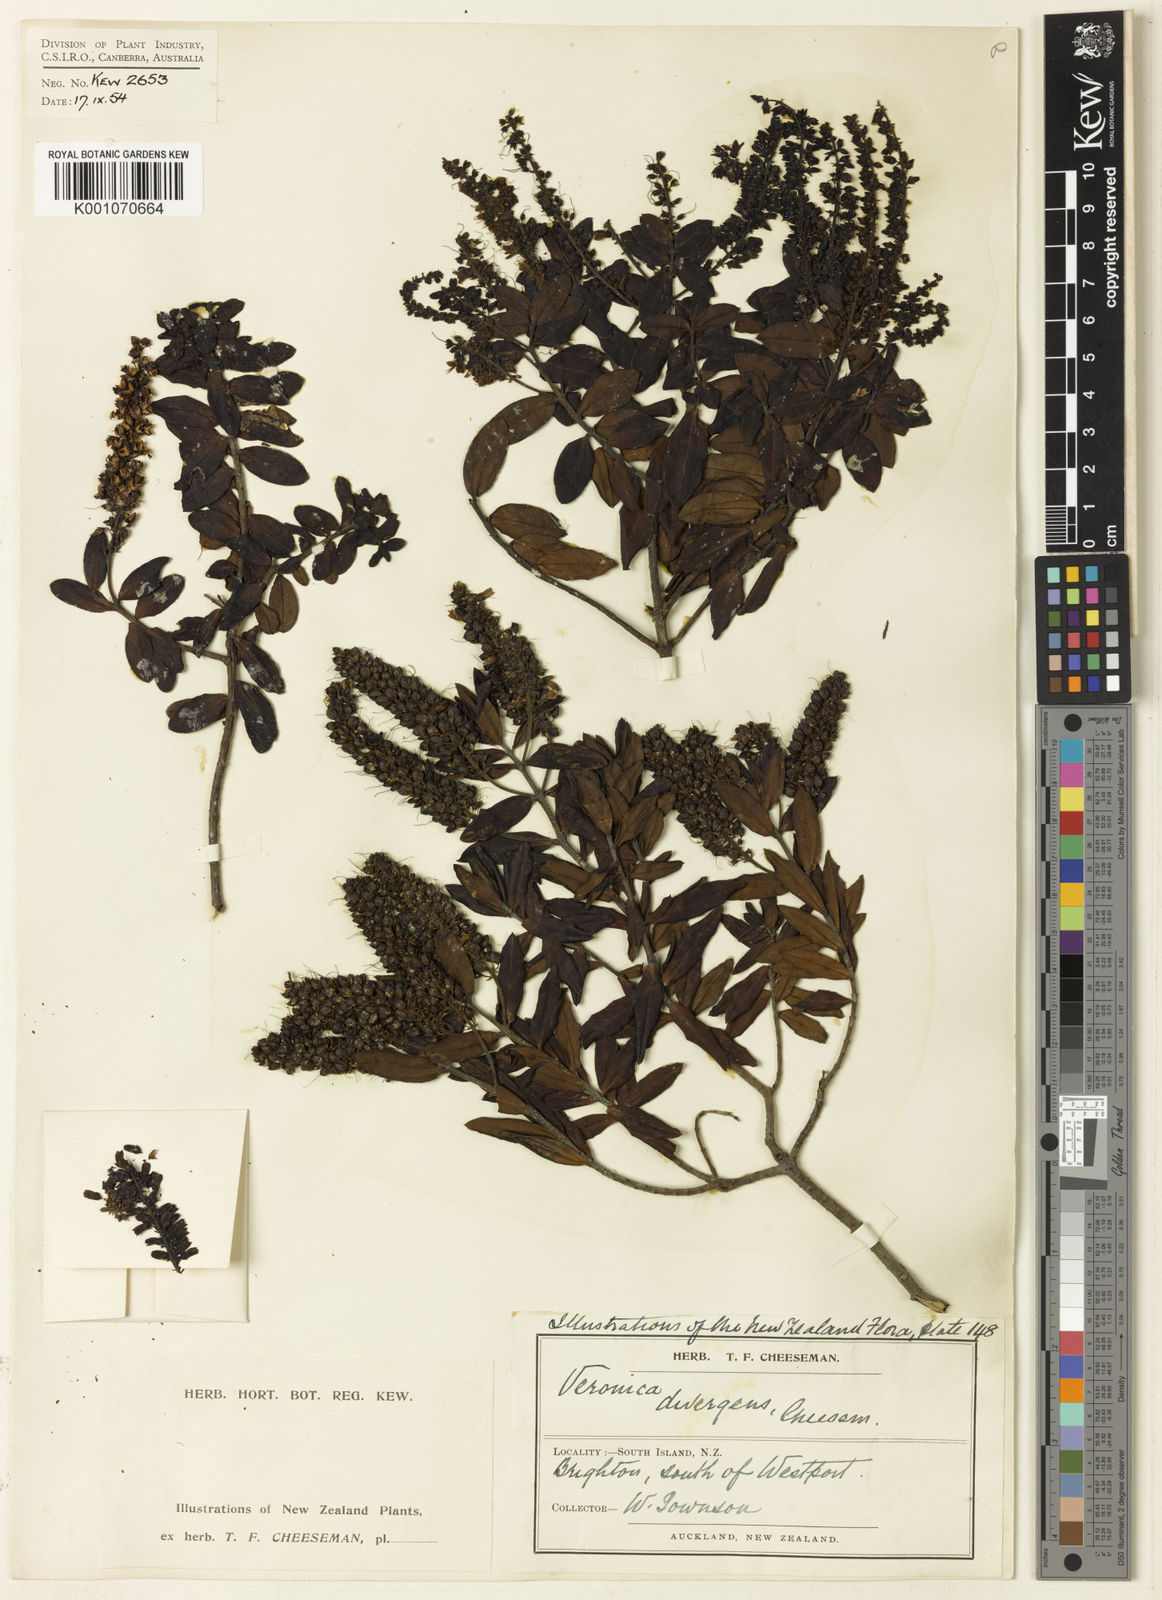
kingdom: Plantae
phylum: Tracheophyta
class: Magnoliopsida
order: Lamiales
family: Plantaginaceae
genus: Veronica
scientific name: Veronica divergens
